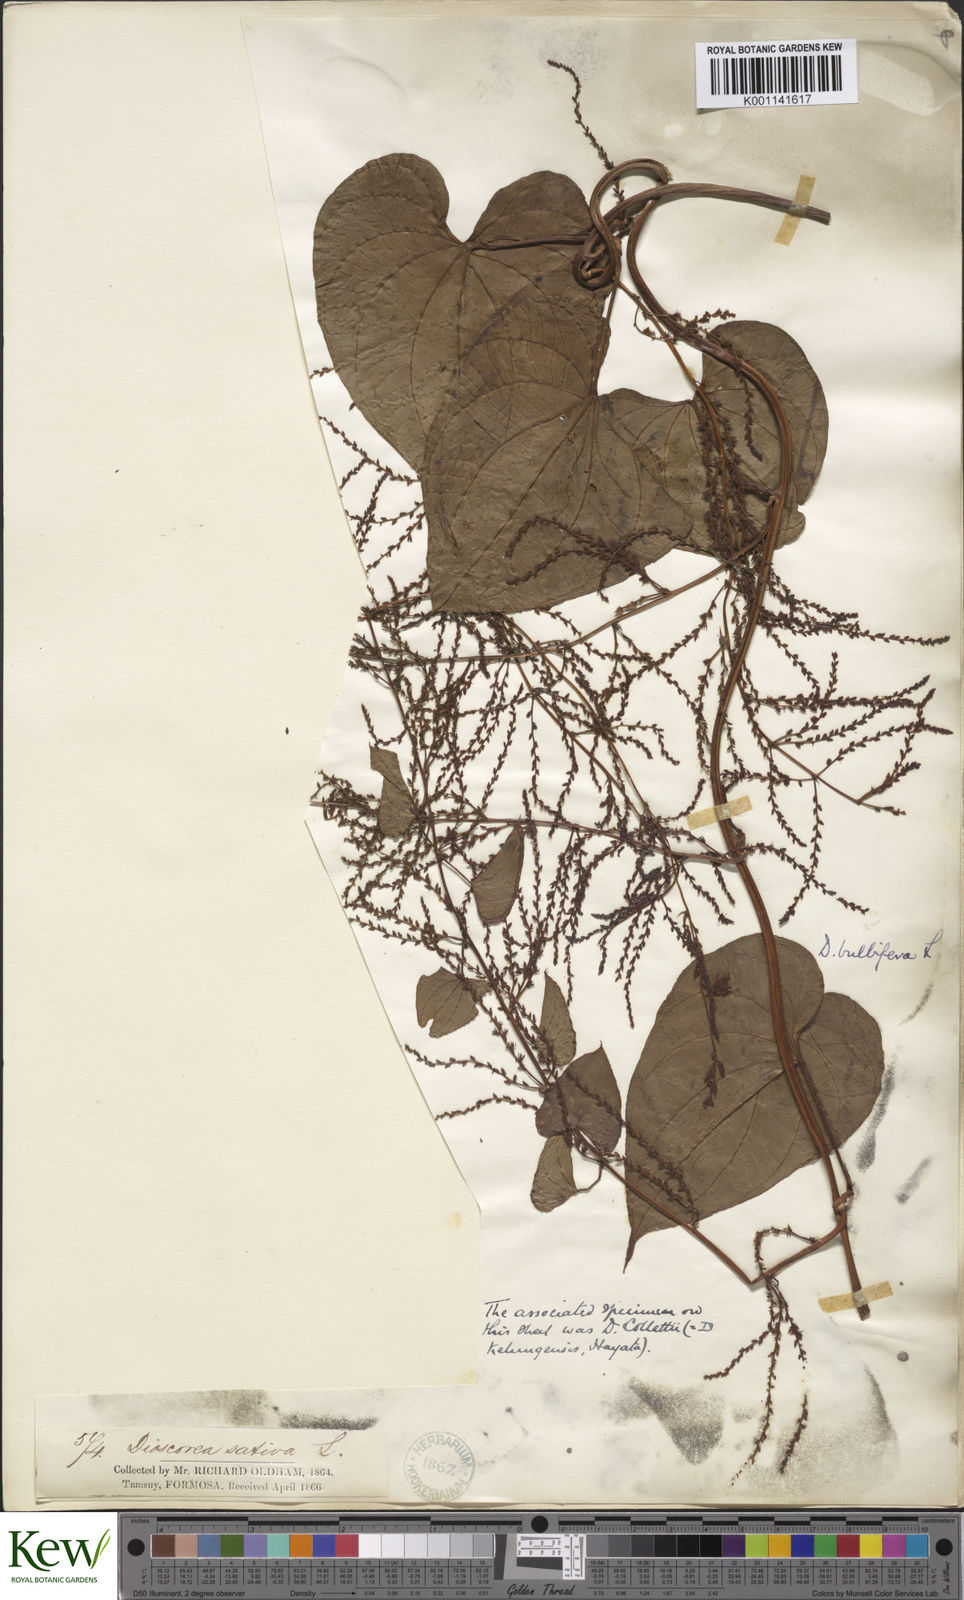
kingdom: Plantae
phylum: Tracheophyta
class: Liliopsida
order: Dioscoreales
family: Dioscoreaceae
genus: Dioscorea
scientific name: Dioscorea bulbifera
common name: Air yam
